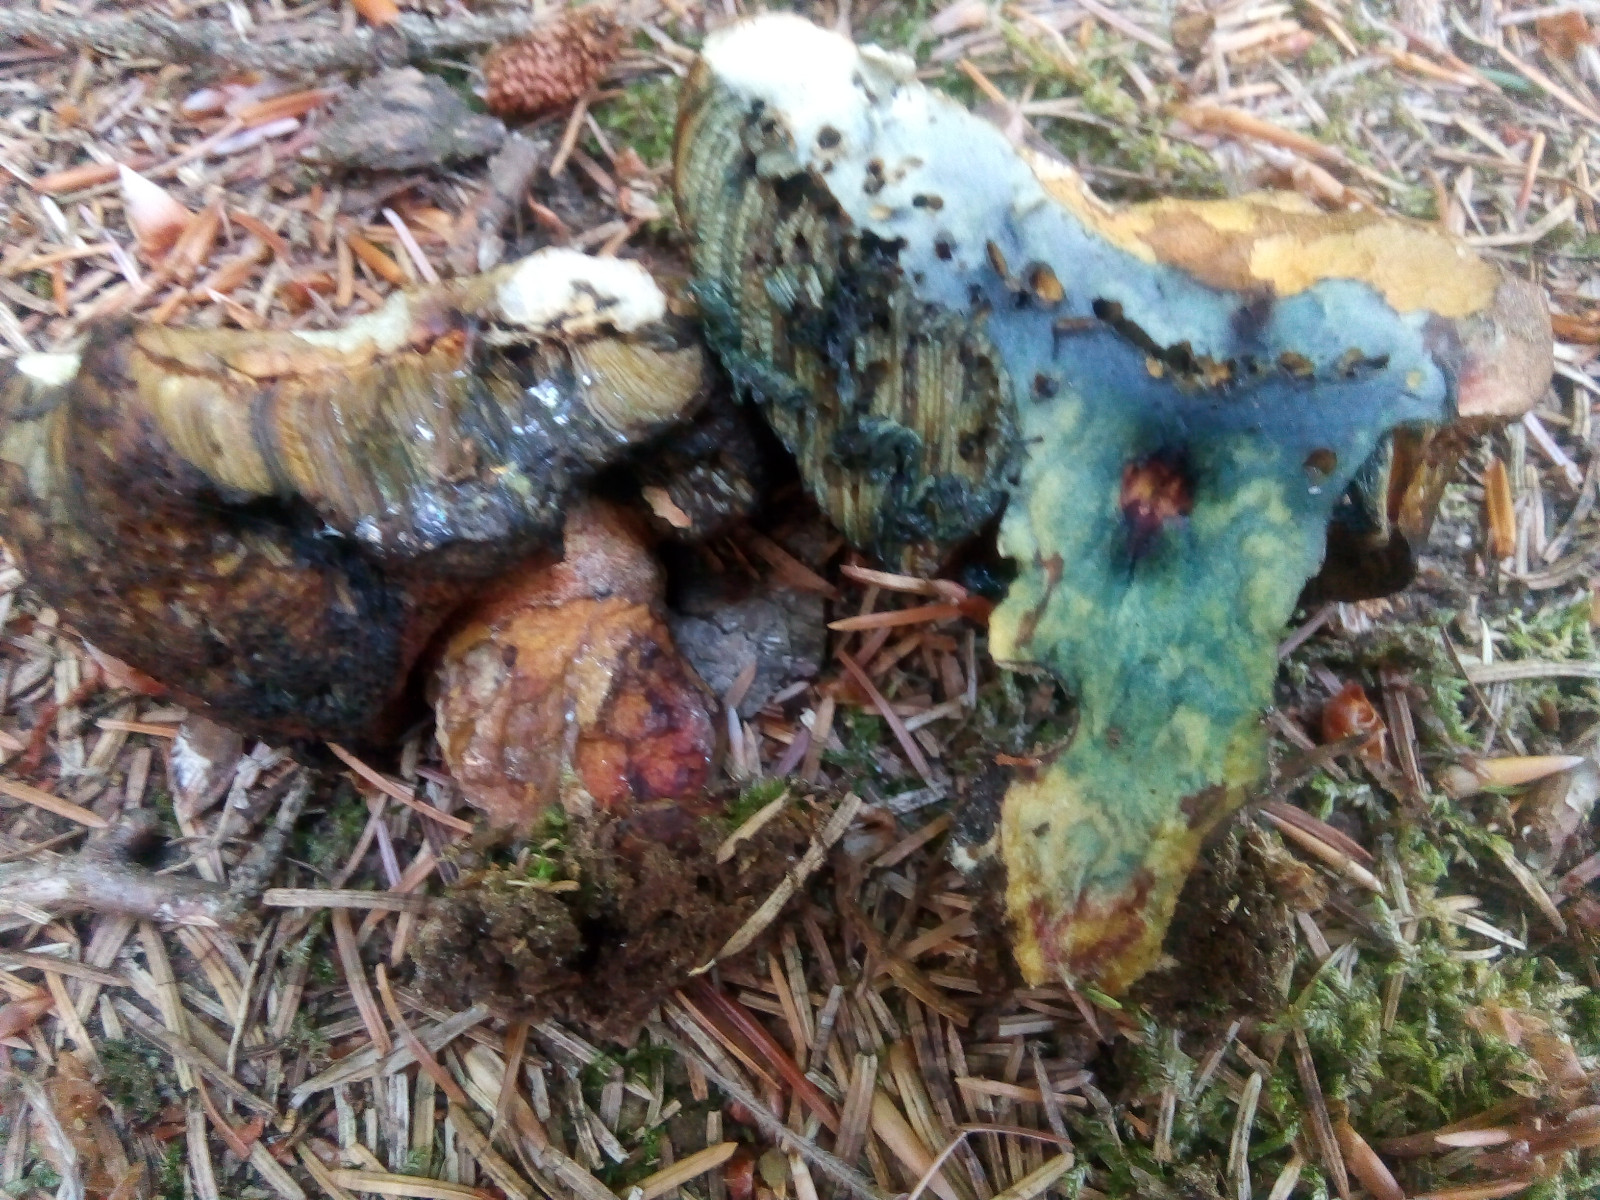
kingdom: Fungi
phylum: Basidiomycota
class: Agaricomycetes
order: Boletales
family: Boletaceae
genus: Neoboletus
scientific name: Neoboletus erythropus
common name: punktstokket indigorørhat
